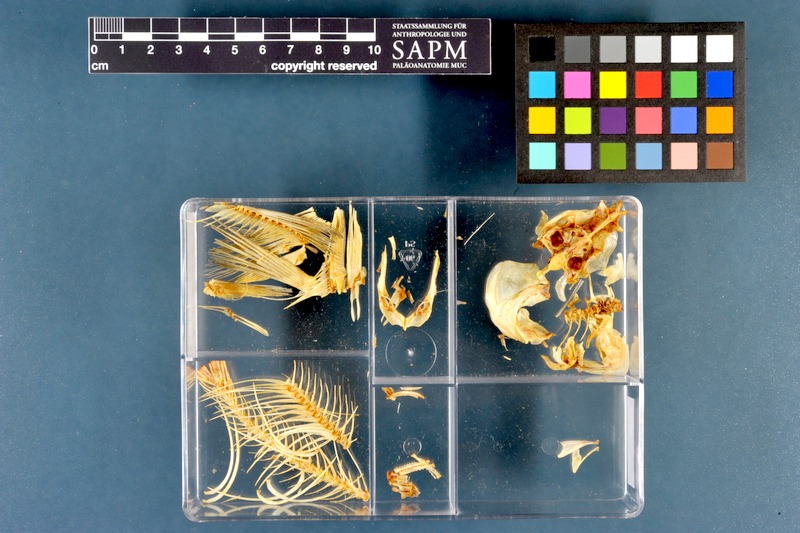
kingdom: Animalia
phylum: Chordata
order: Cypriniformes
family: Cyprinidae
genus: Rutilus
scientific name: Rutilus rutilus
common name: Roach
